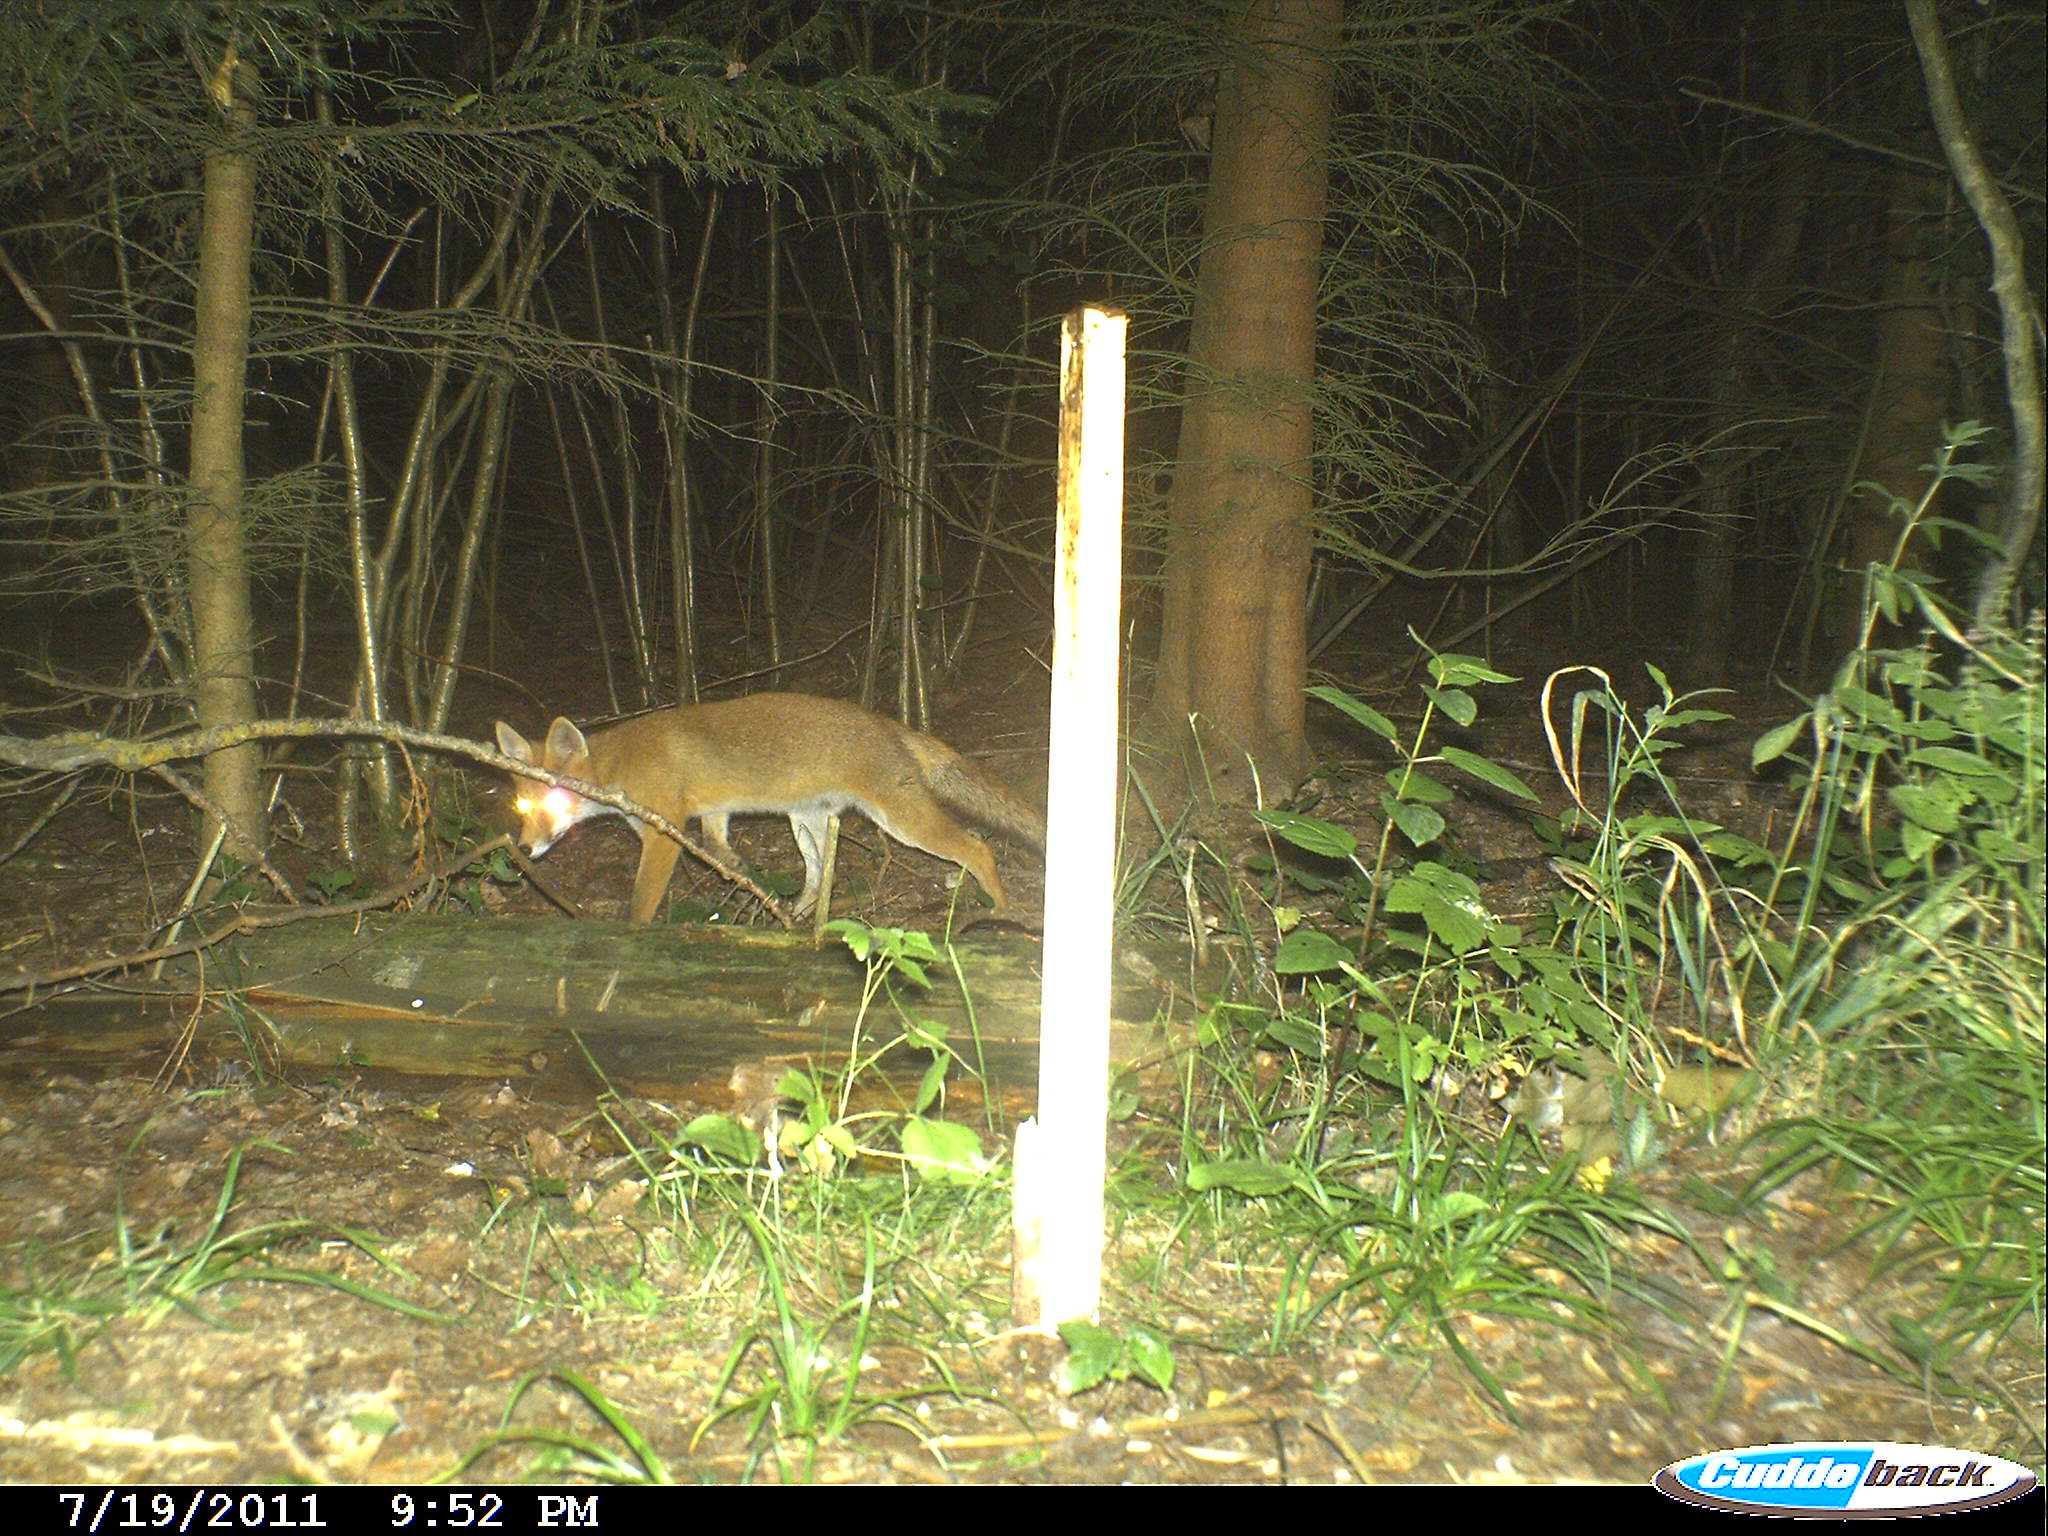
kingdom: Animalia
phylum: Chordata
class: Mammalia
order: Carnivora
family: Canidae
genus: Vulpes
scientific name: Vulpes vulpes
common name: Red fox
